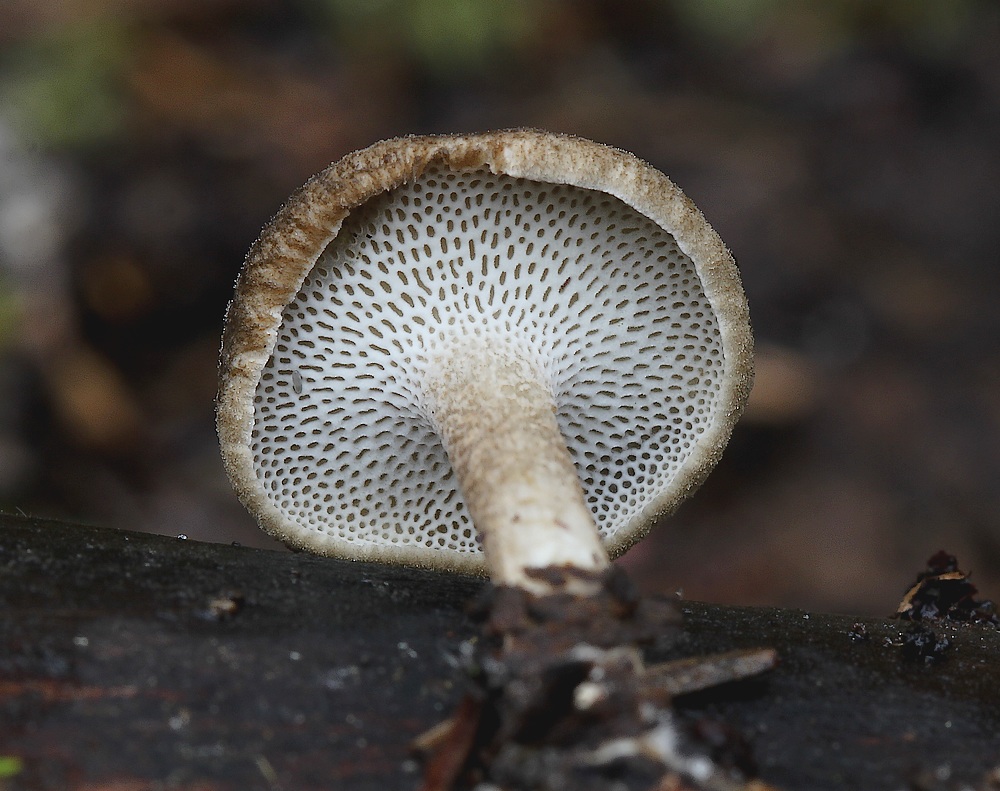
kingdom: Fungi
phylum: Basidiomycota
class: Agaricomycetes
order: Polyporales
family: Polyporaceae
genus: Lentinus
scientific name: Lentinus brumalis
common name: vinter-stilkporesvamp
